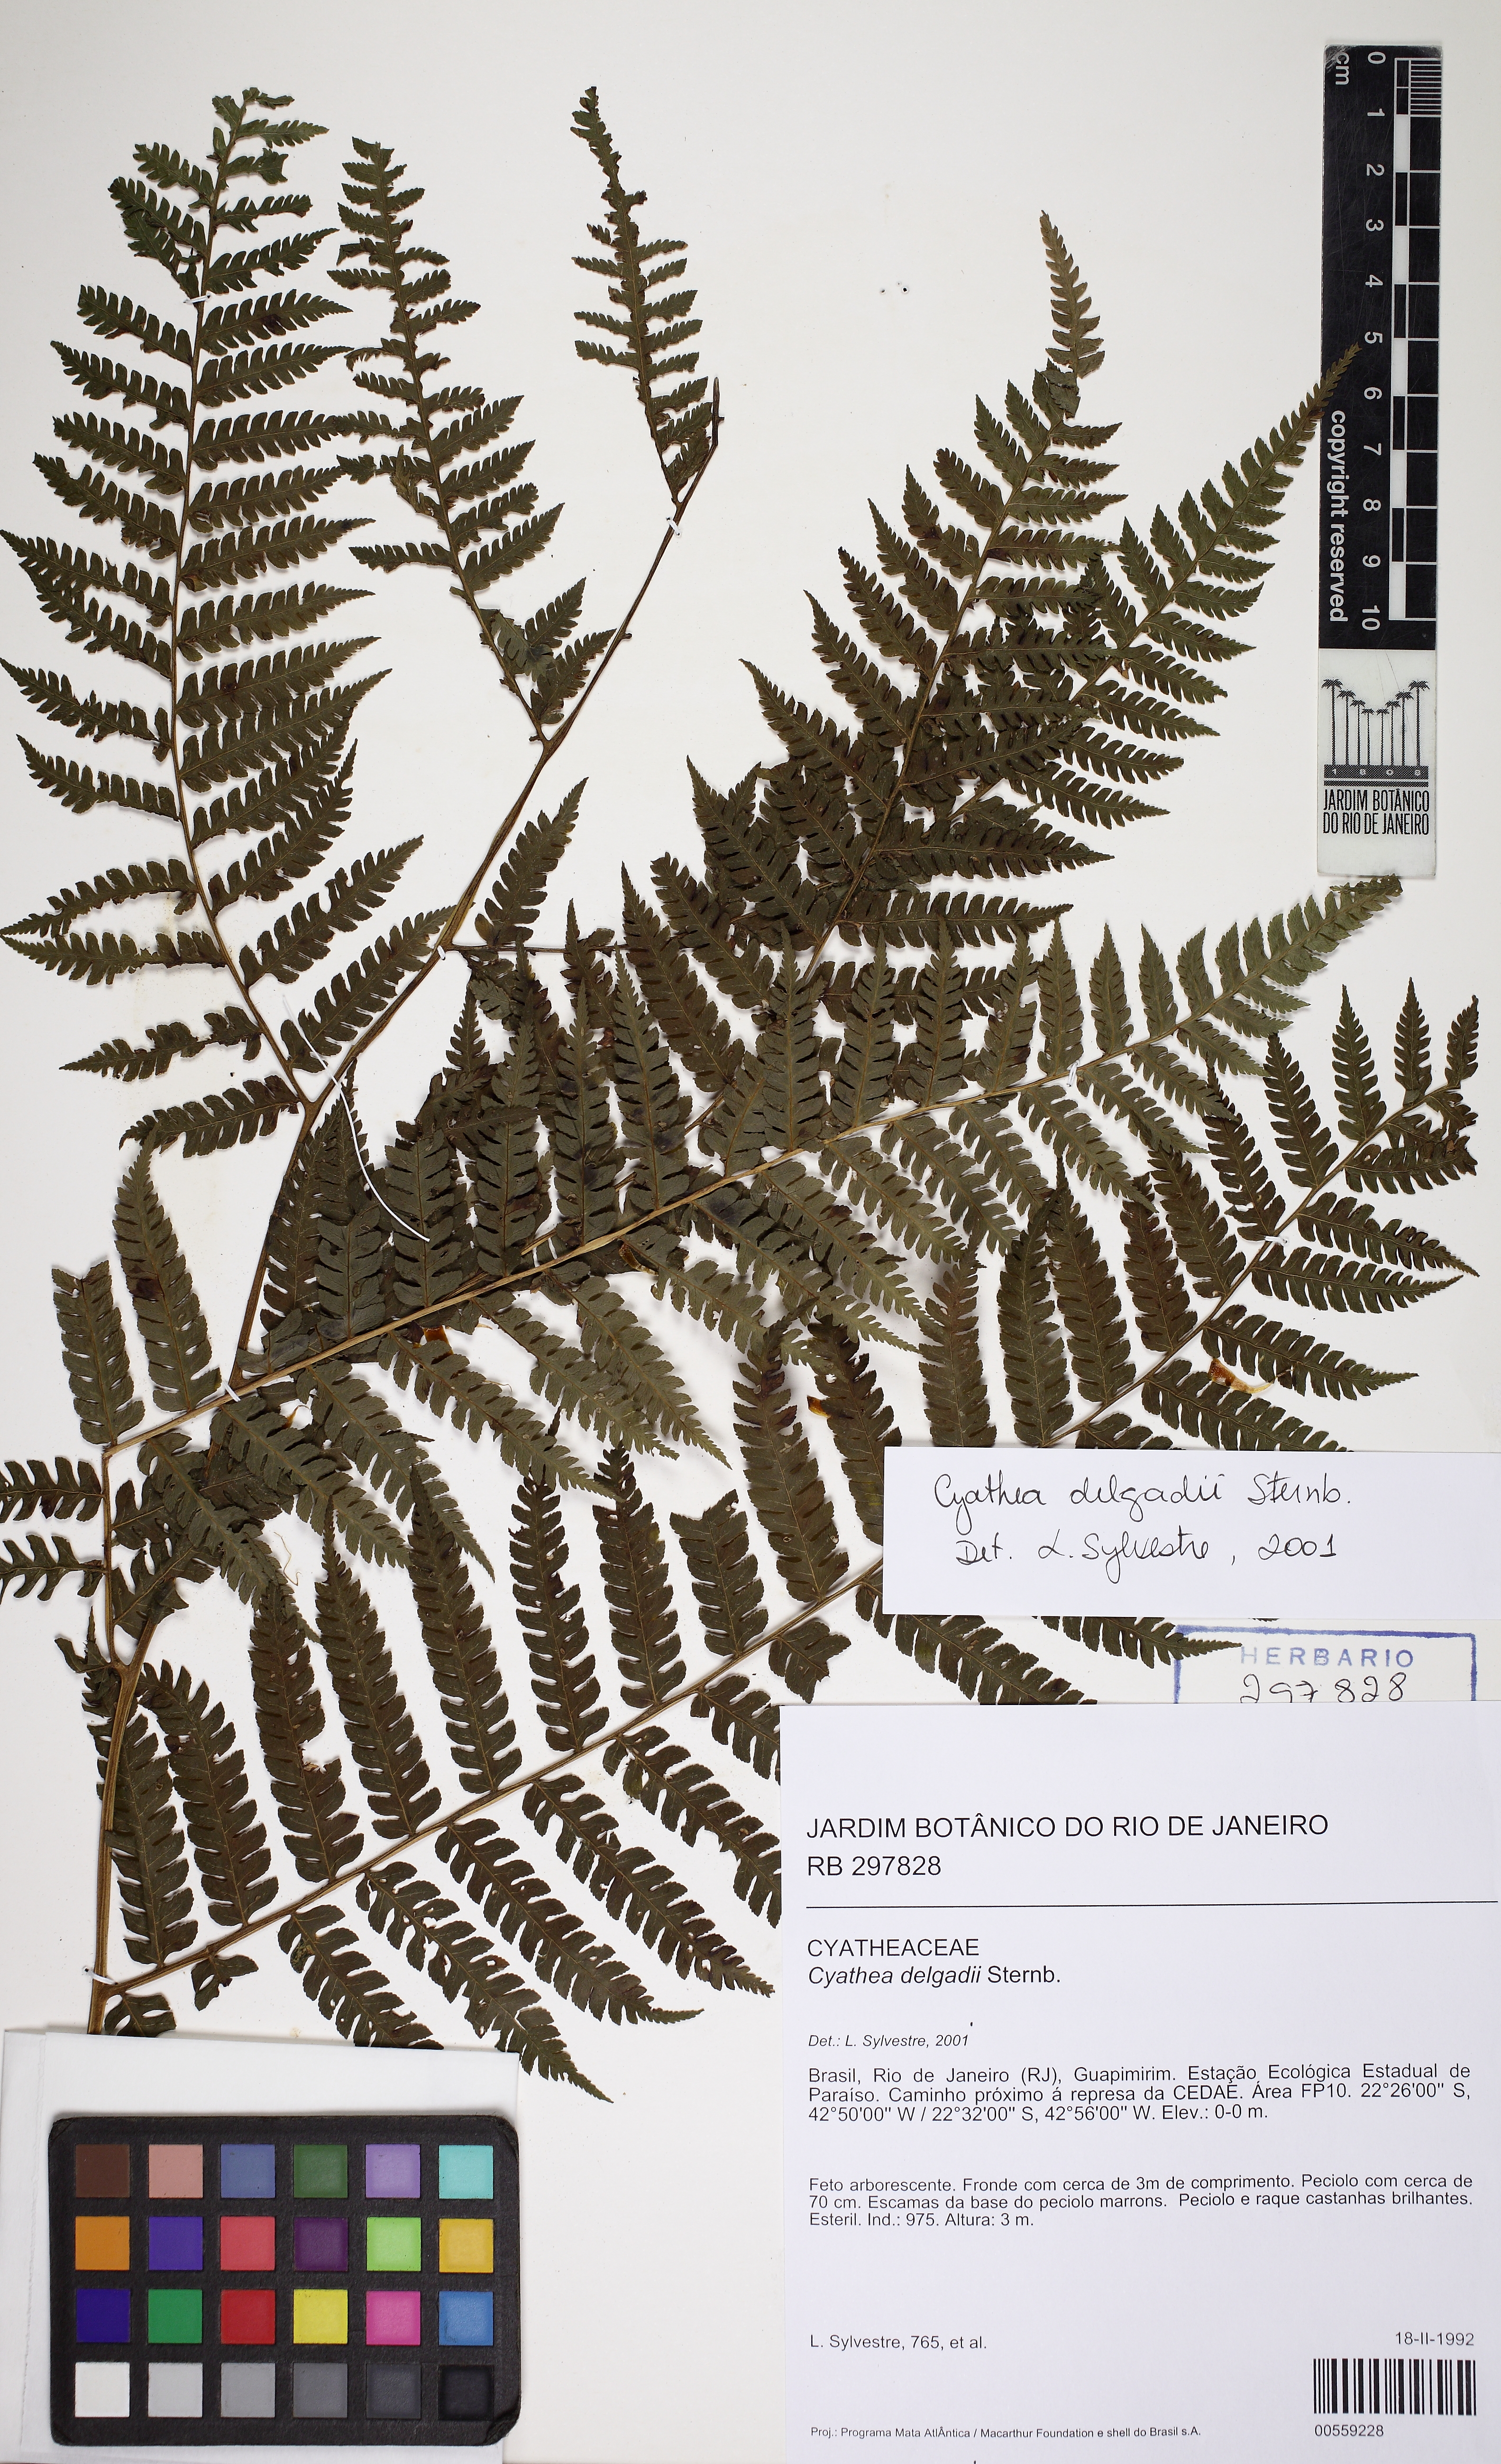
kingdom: Plantae
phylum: Tracheophyta
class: Polypodiopsida
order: Cyatheales
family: Cyatheaceae
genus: Cyathea
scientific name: Cyathea delgadii
